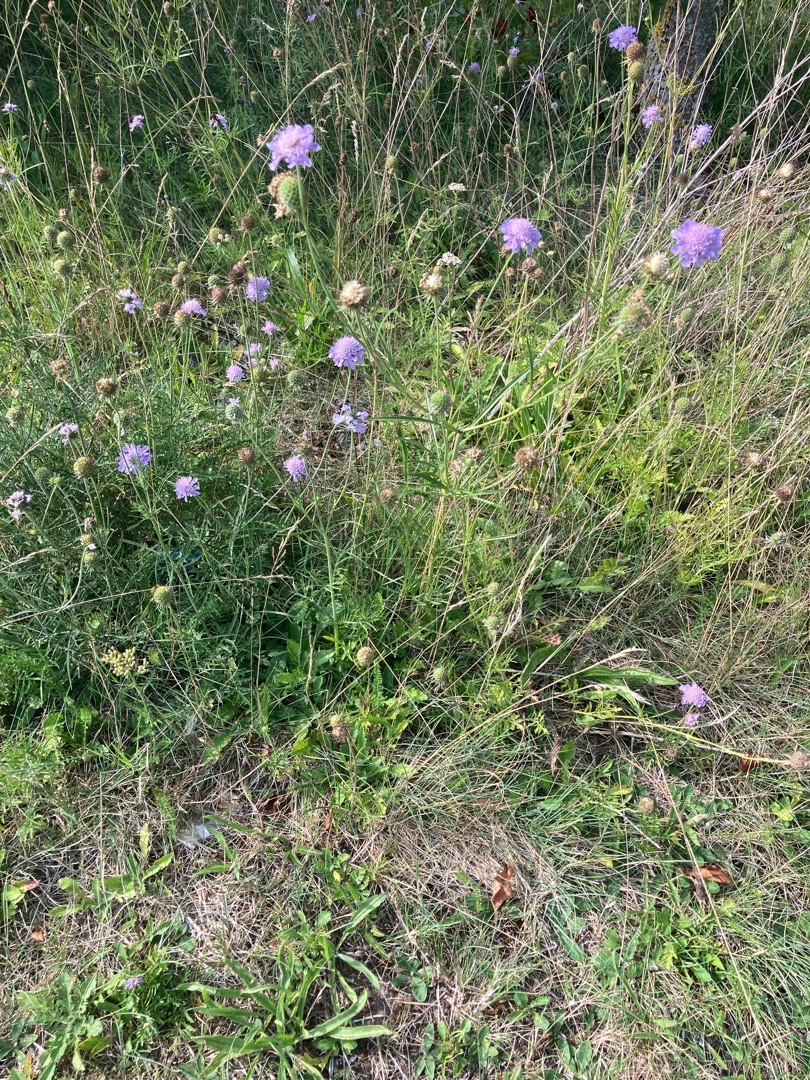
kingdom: Plantae
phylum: Tracheophyta
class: Magnoliopsida
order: Dipsacales
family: Caprifoliaceae
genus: Scabiosa
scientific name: Scabiosa columbaria
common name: Due-skabiose
